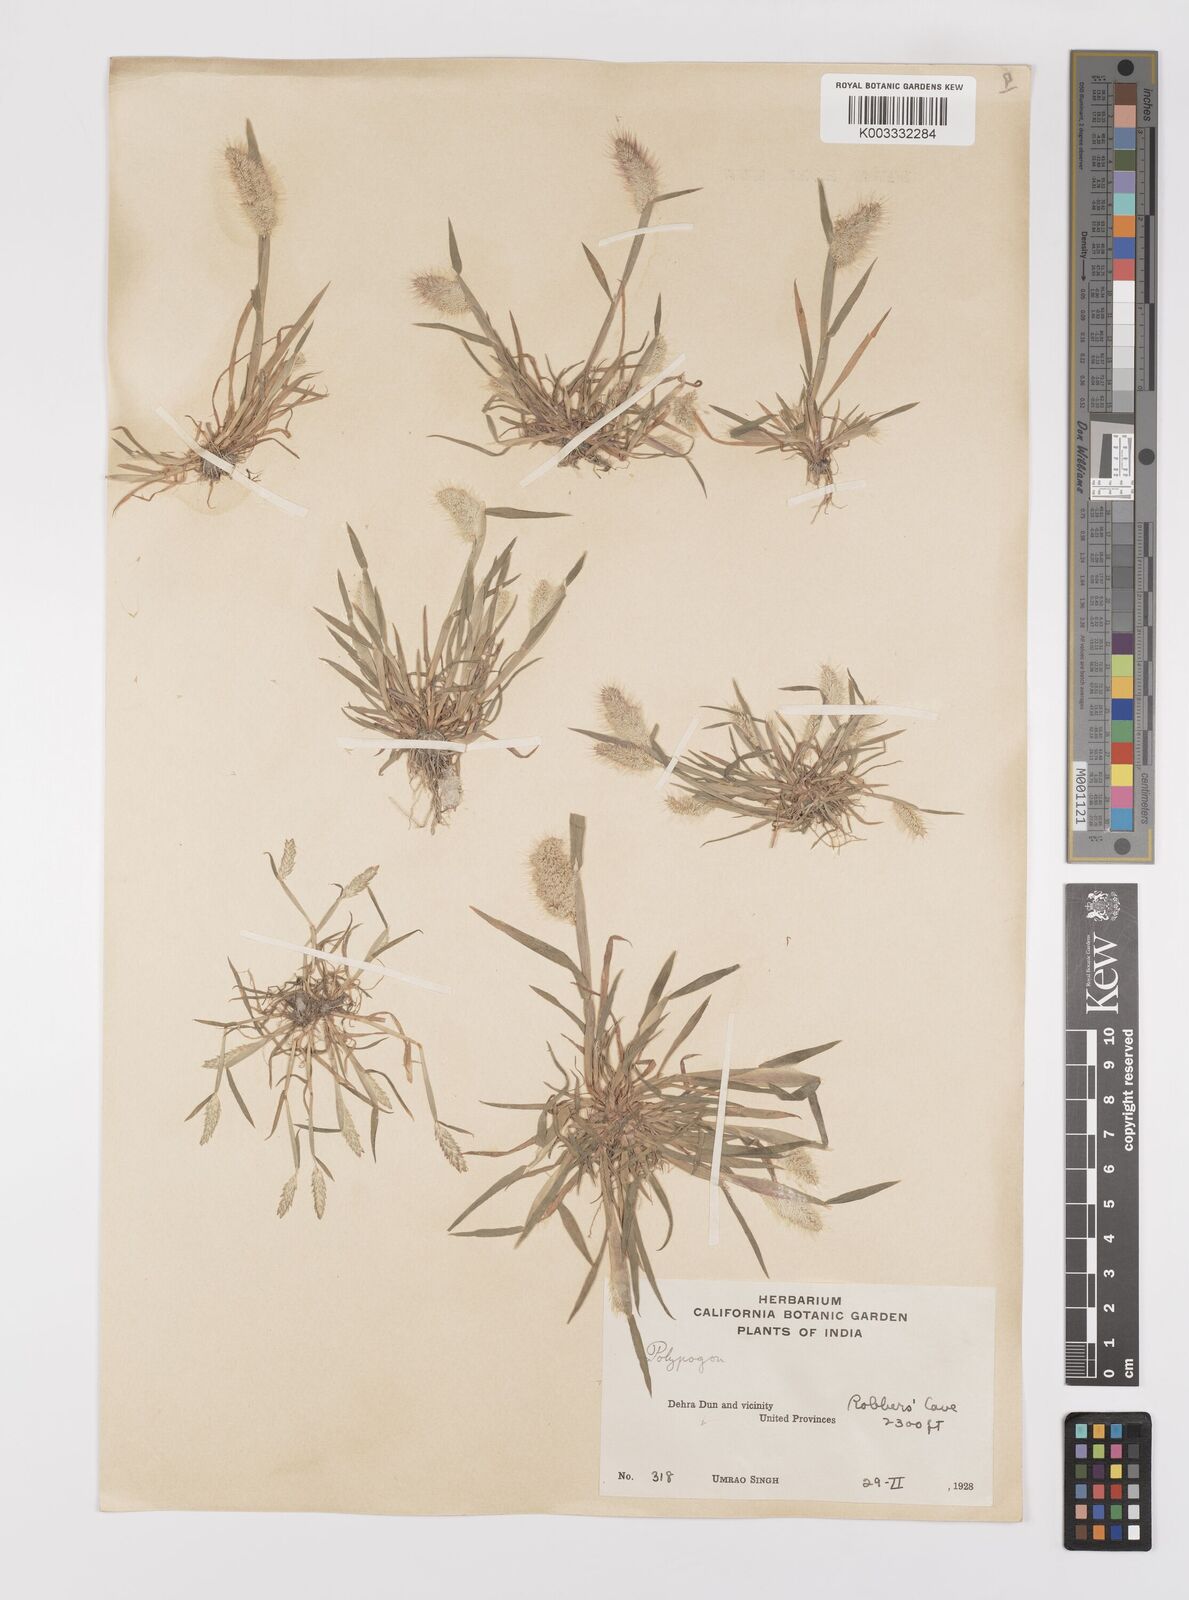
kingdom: Plantae
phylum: Tracheophyta
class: Liliopsida
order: Poales
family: Poaceae
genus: Polypogon
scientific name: Polypogon monspeliensis
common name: Annual rabbitsfoot grass
